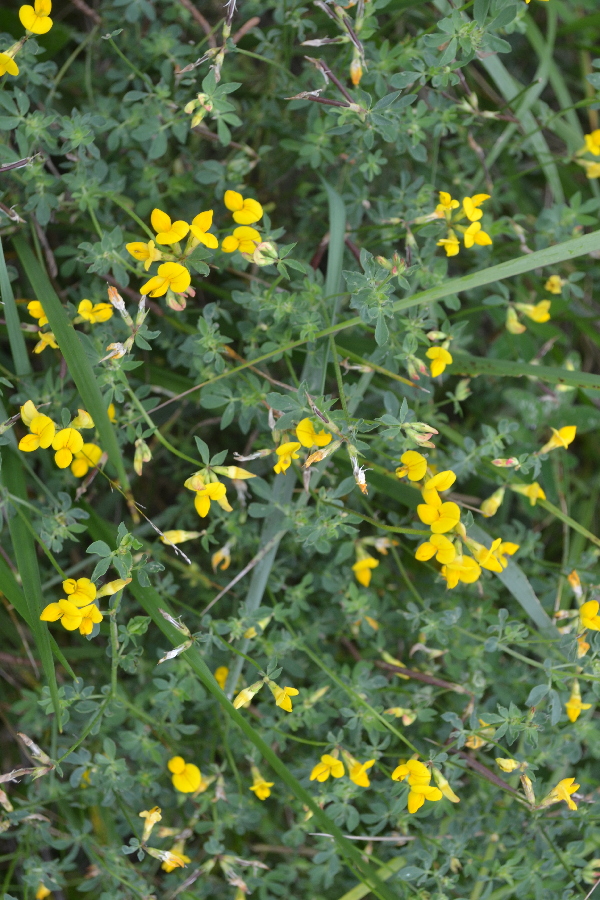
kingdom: Plantae
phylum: Tracheophyta
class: Magnoliopsida
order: Fabales
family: Fabaceae
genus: Lotus
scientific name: Lotus corniculatus
